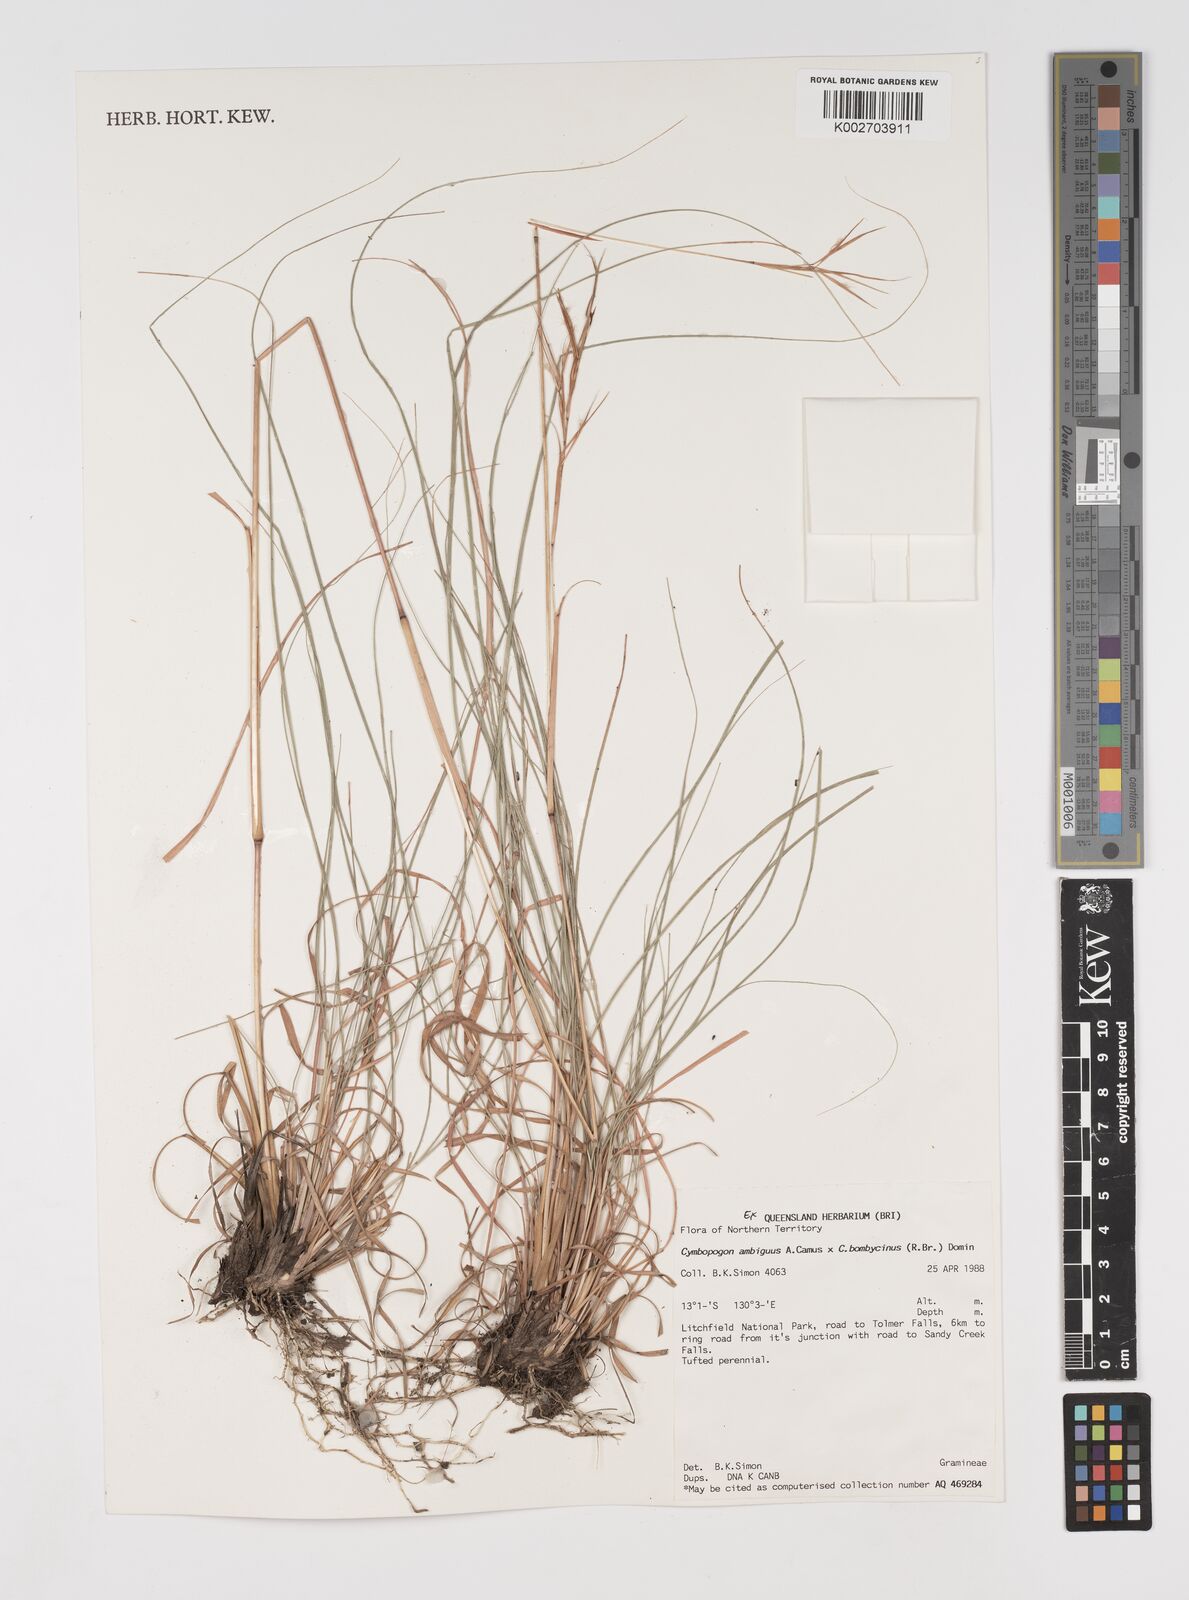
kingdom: Plantae
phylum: Tracheophyta
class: Liliopsida
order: Poales
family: Poaceae
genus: Cymbopogon
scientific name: Cymbopogon bombycinus
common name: Citronella grass
